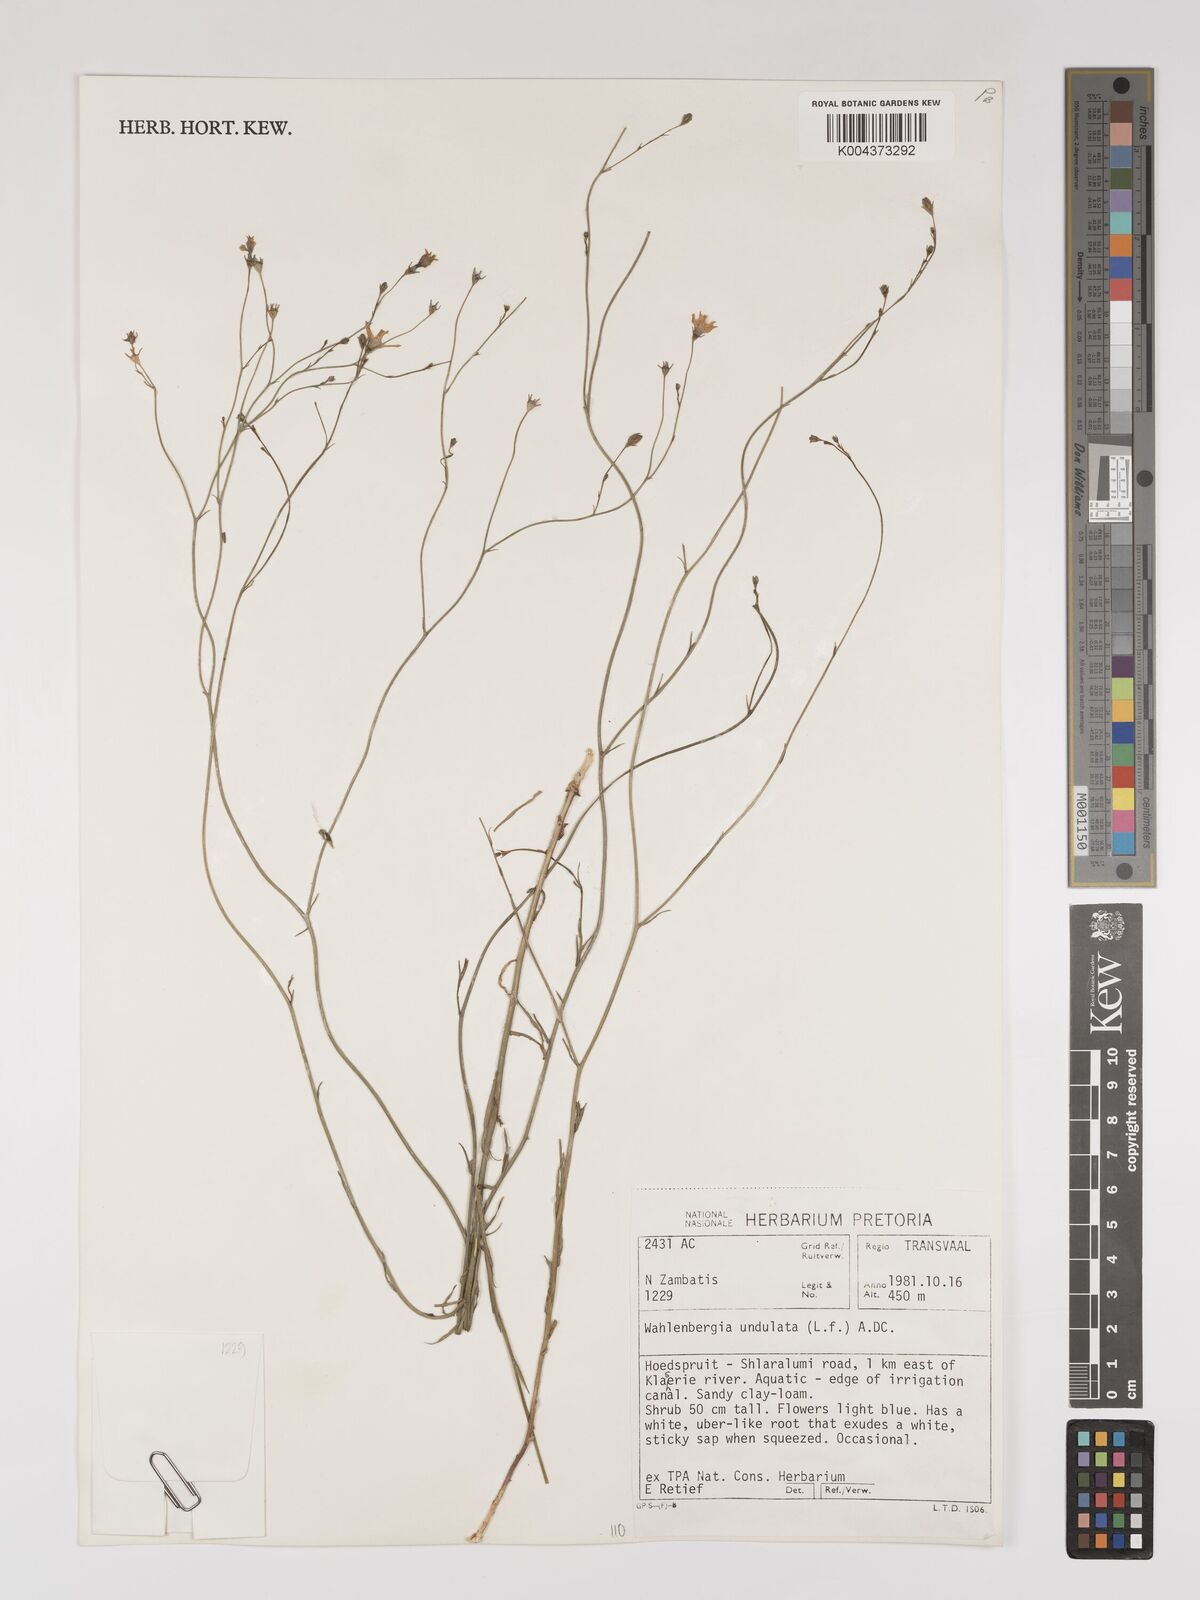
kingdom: Plantae
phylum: Tracheophyta
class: Magnoliopsida
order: Asterales
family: Campanulaceae
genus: Wahlenbergia
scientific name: Wahlenbergia undulata
